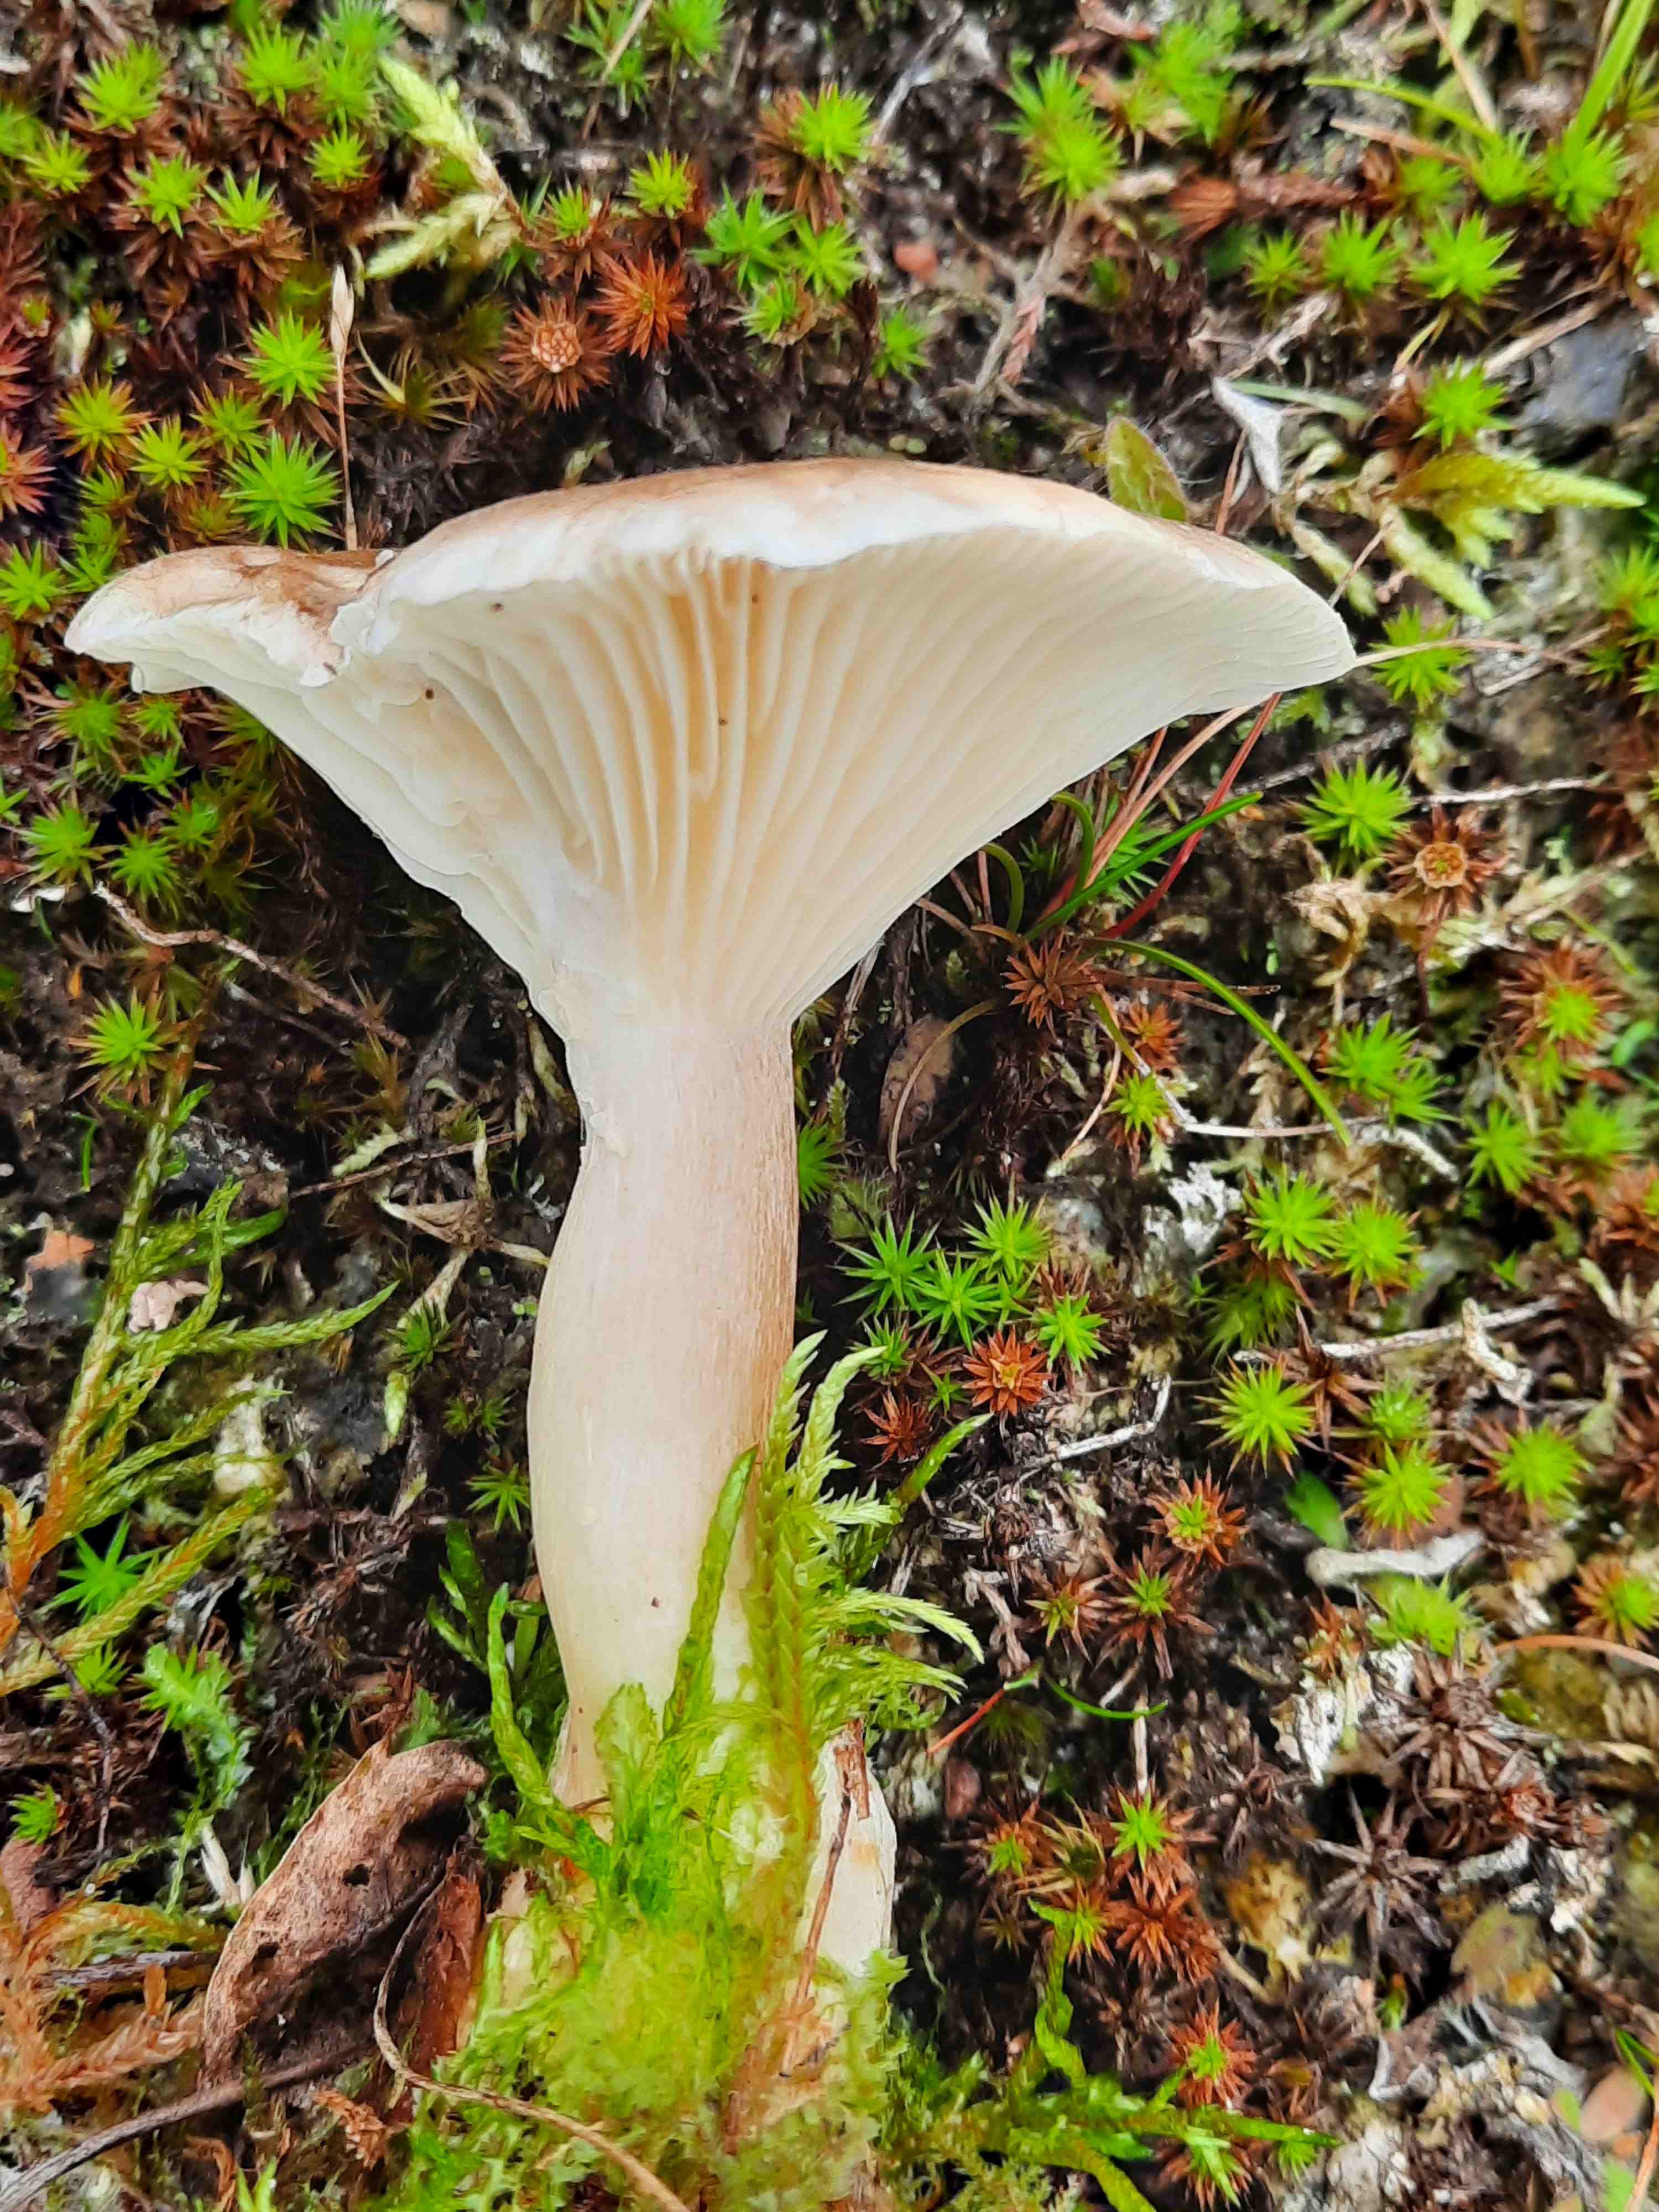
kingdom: Fungi
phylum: Basidiomycota
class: Agaricomycetes
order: Agaricales
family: Hygrophoraceae
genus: Ampulloclitocybe
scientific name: Ampulloclitocybe clavipes
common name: køllefod
